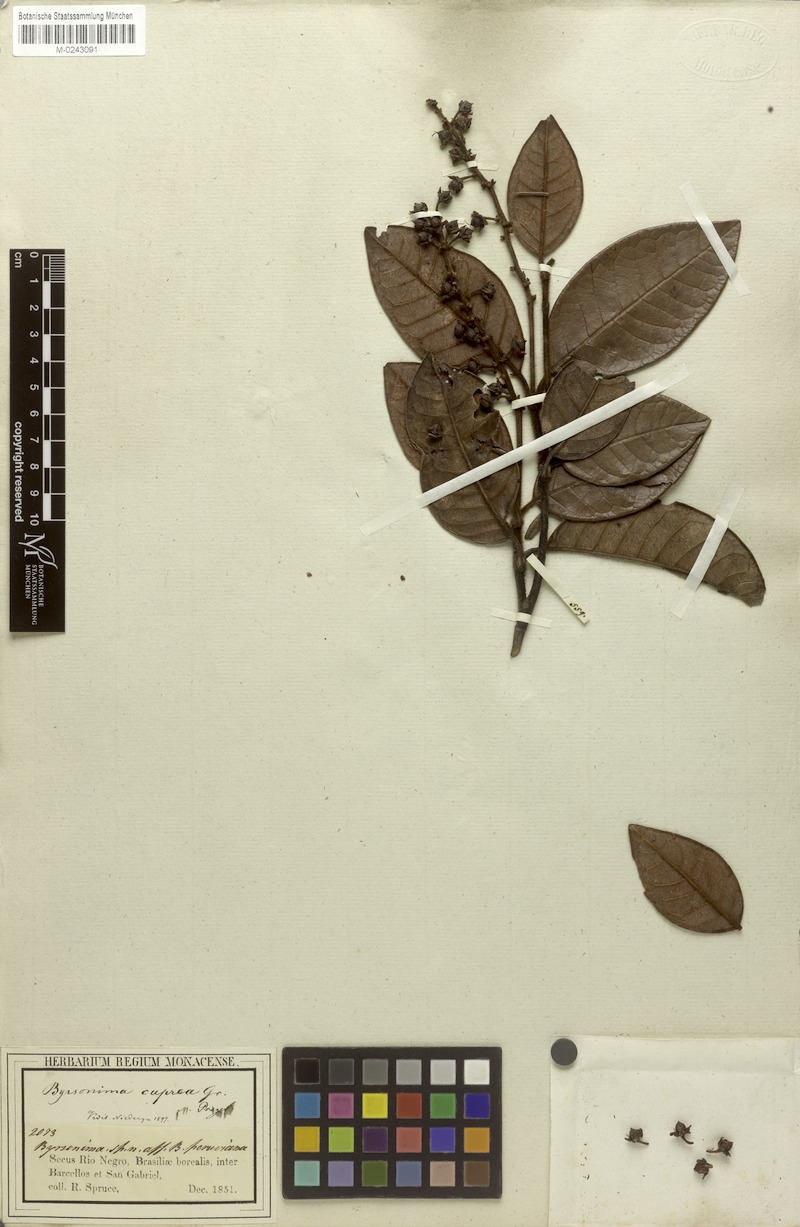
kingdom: Plantae
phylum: Tracheophyta
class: Magnoliopsida
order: Malpighiales
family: Malpighiaceae
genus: Byrsonima
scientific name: Byrsonima cuprea
